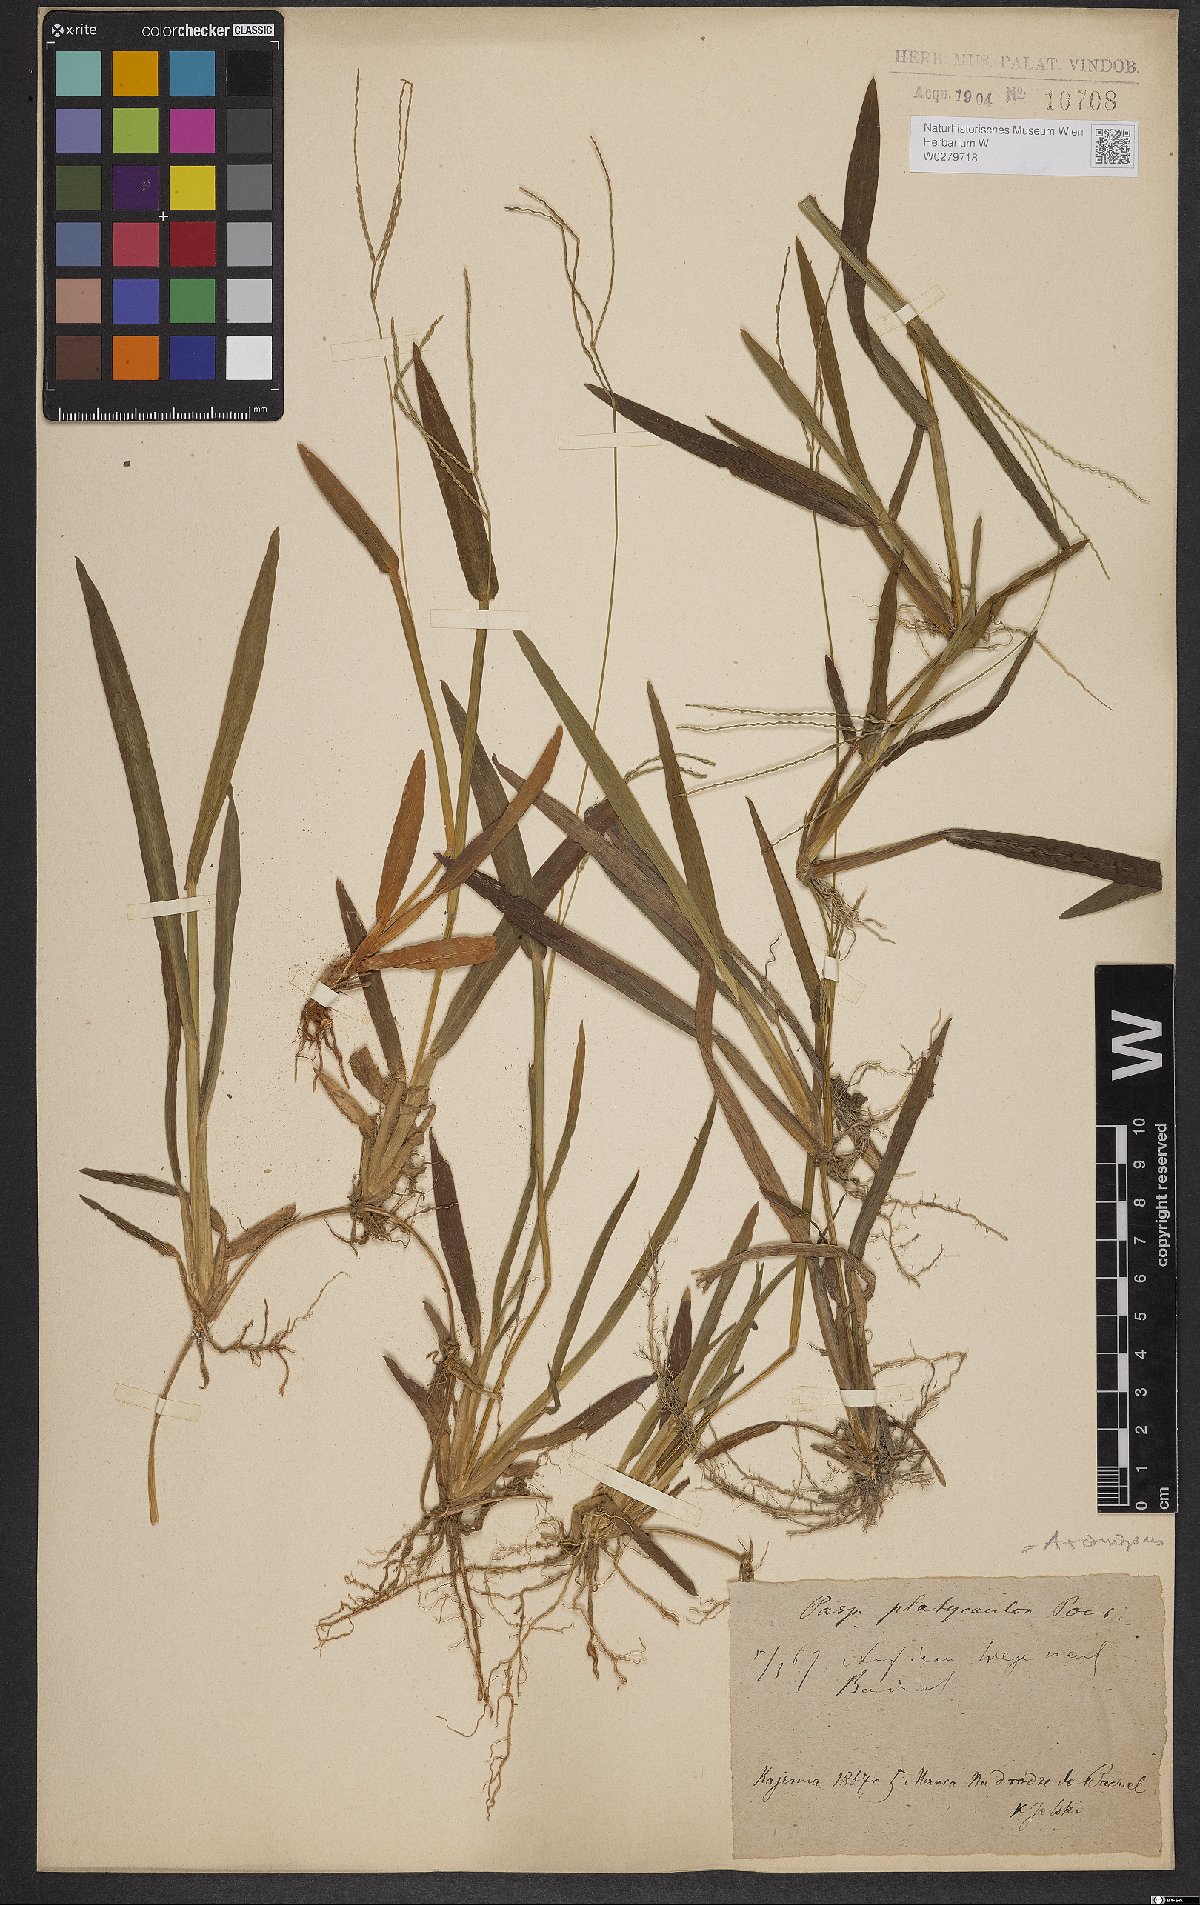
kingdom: Plantae
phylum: Tracheophyta
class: Liliopsida
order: Poales
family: Poaceae
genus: Axonopus
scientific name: Axonopus compressus
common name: American carpet grass
